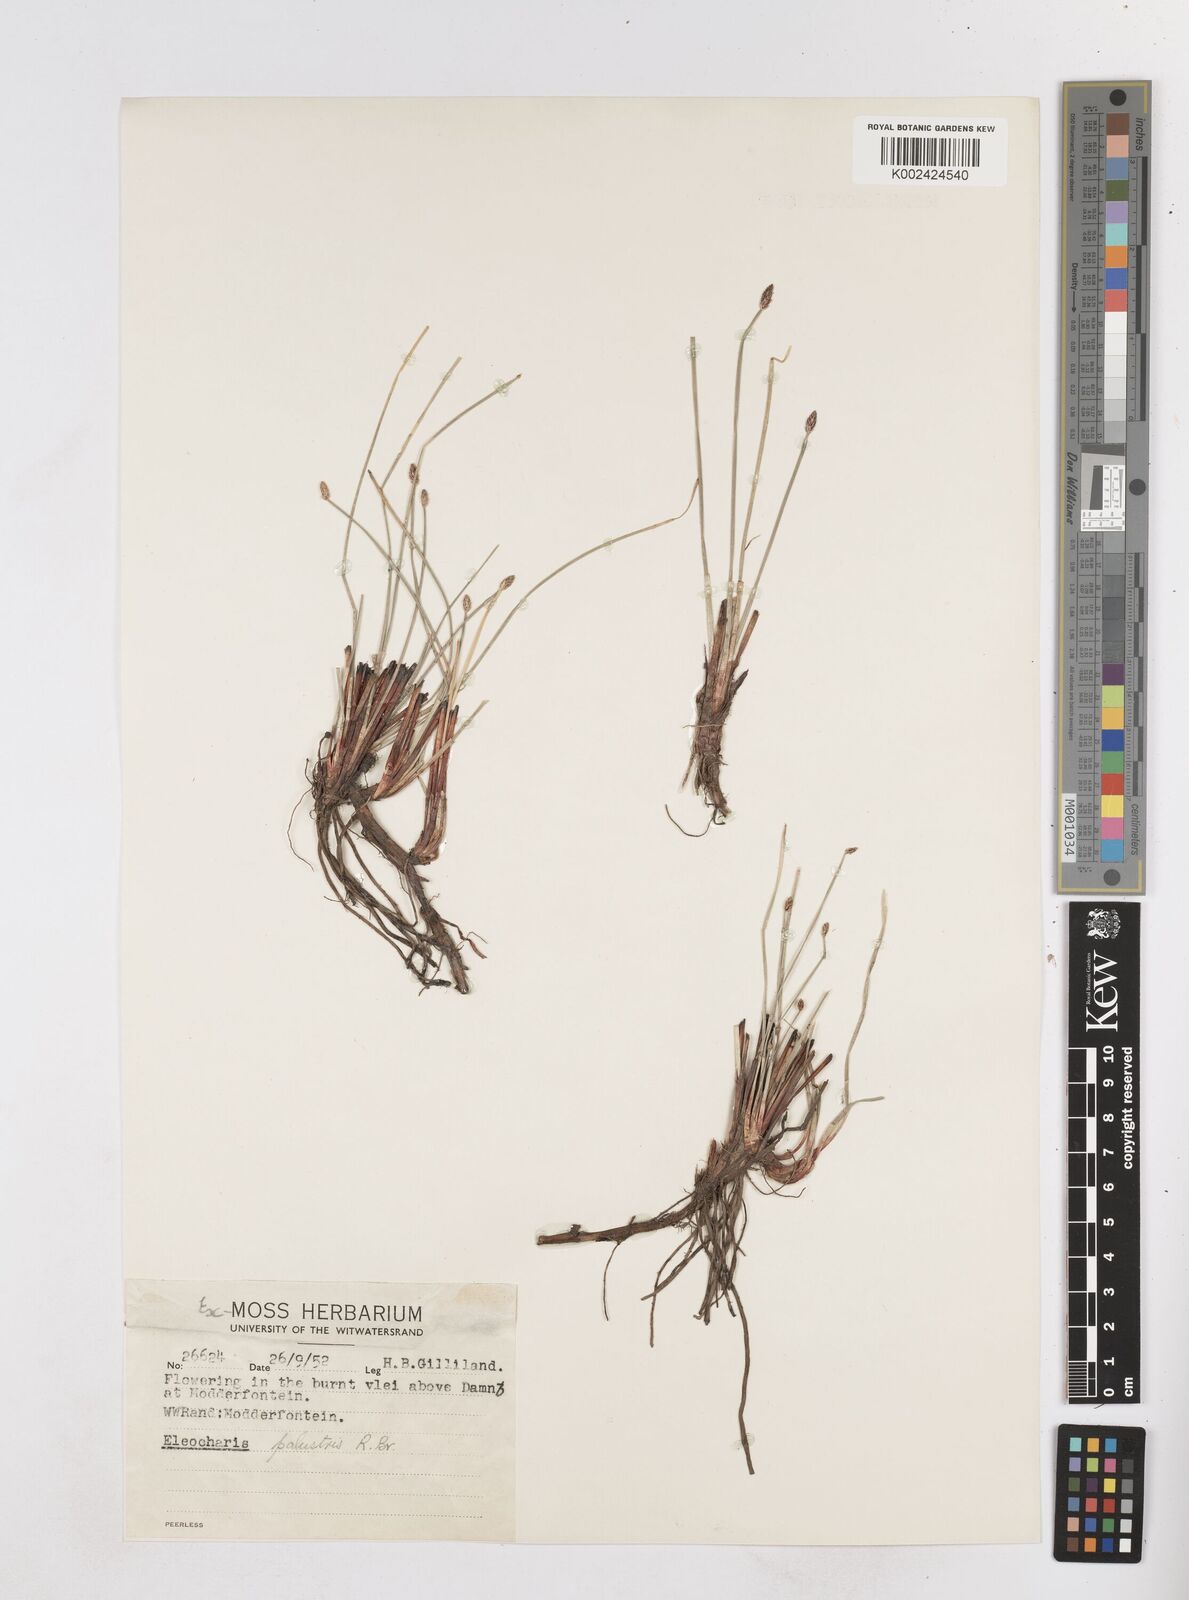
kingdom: Plantae
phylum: Tracheophyta
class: Liliopsida
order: Poales
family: Cyperaceae
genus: Eleocharis
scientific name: Eleocharis palustris
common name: Common spike-rush
